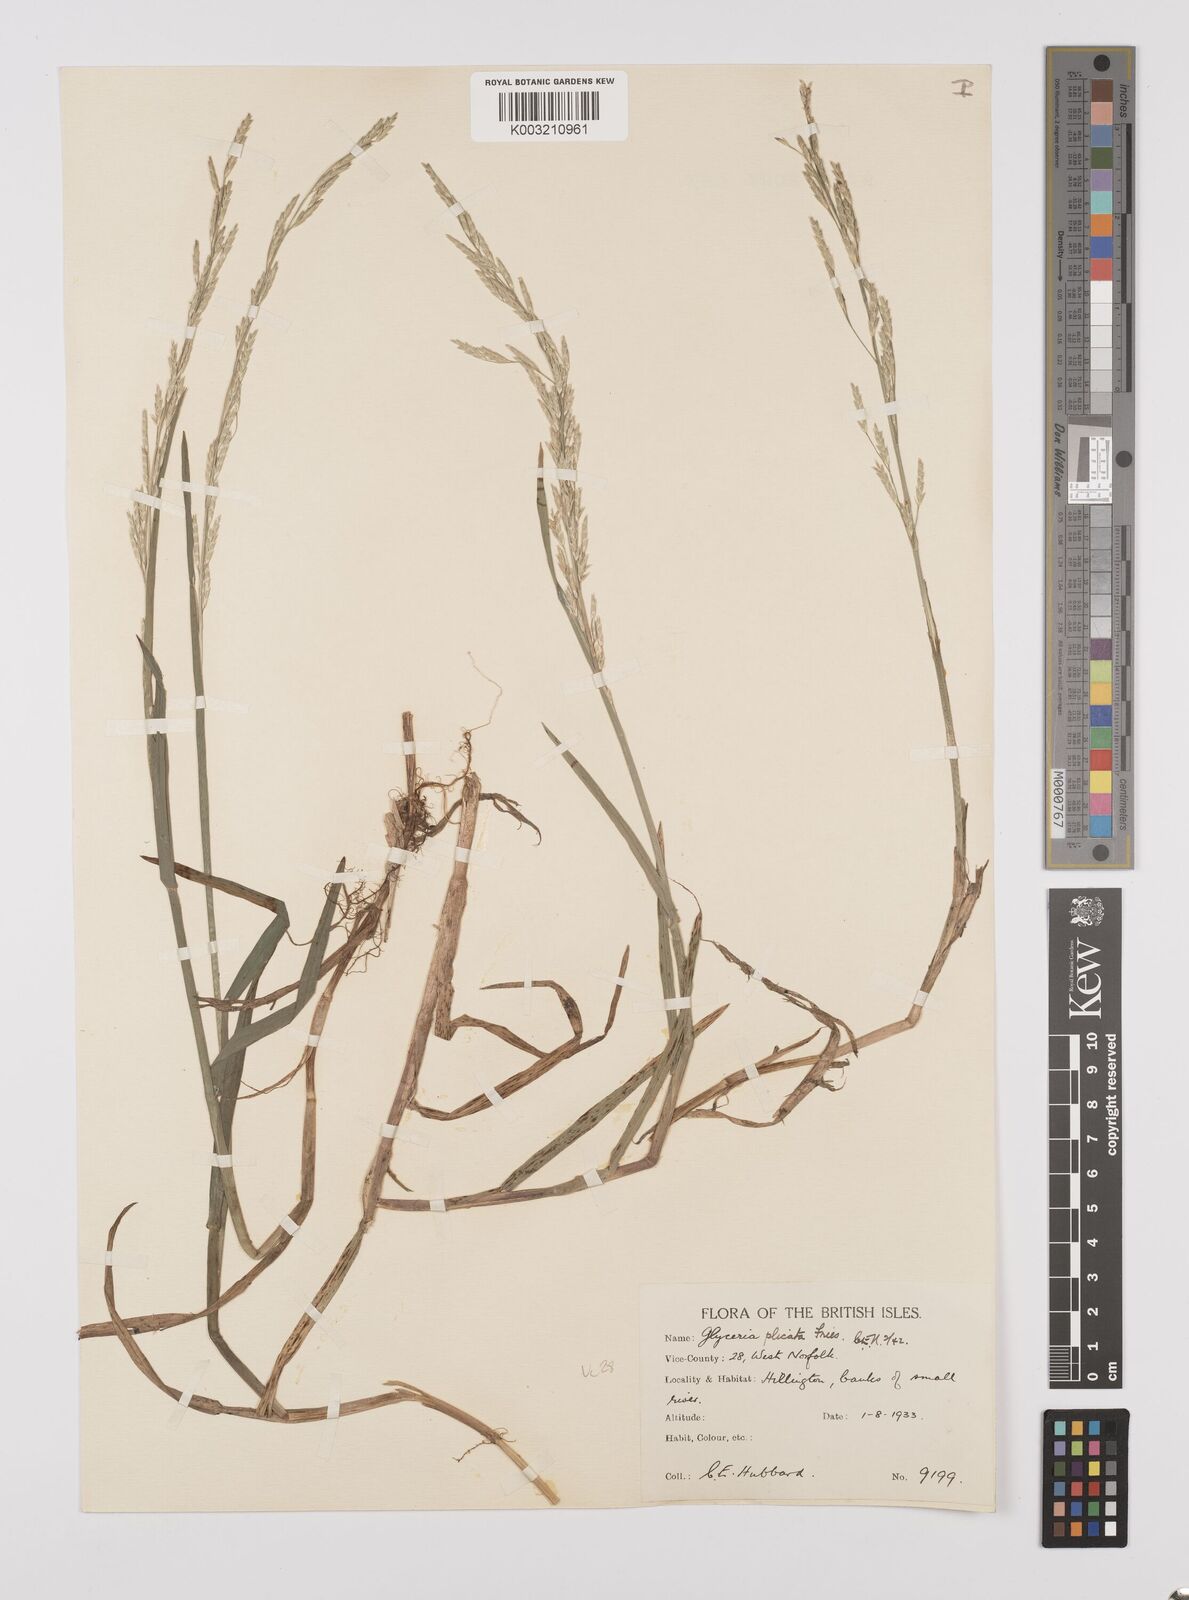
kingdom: Plantae
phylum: Tracheophyta
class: Liliopsida
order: Poales
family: Poaceae
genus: Glyceria
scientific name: Glyceria notata
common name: Plicate sweet-grass
